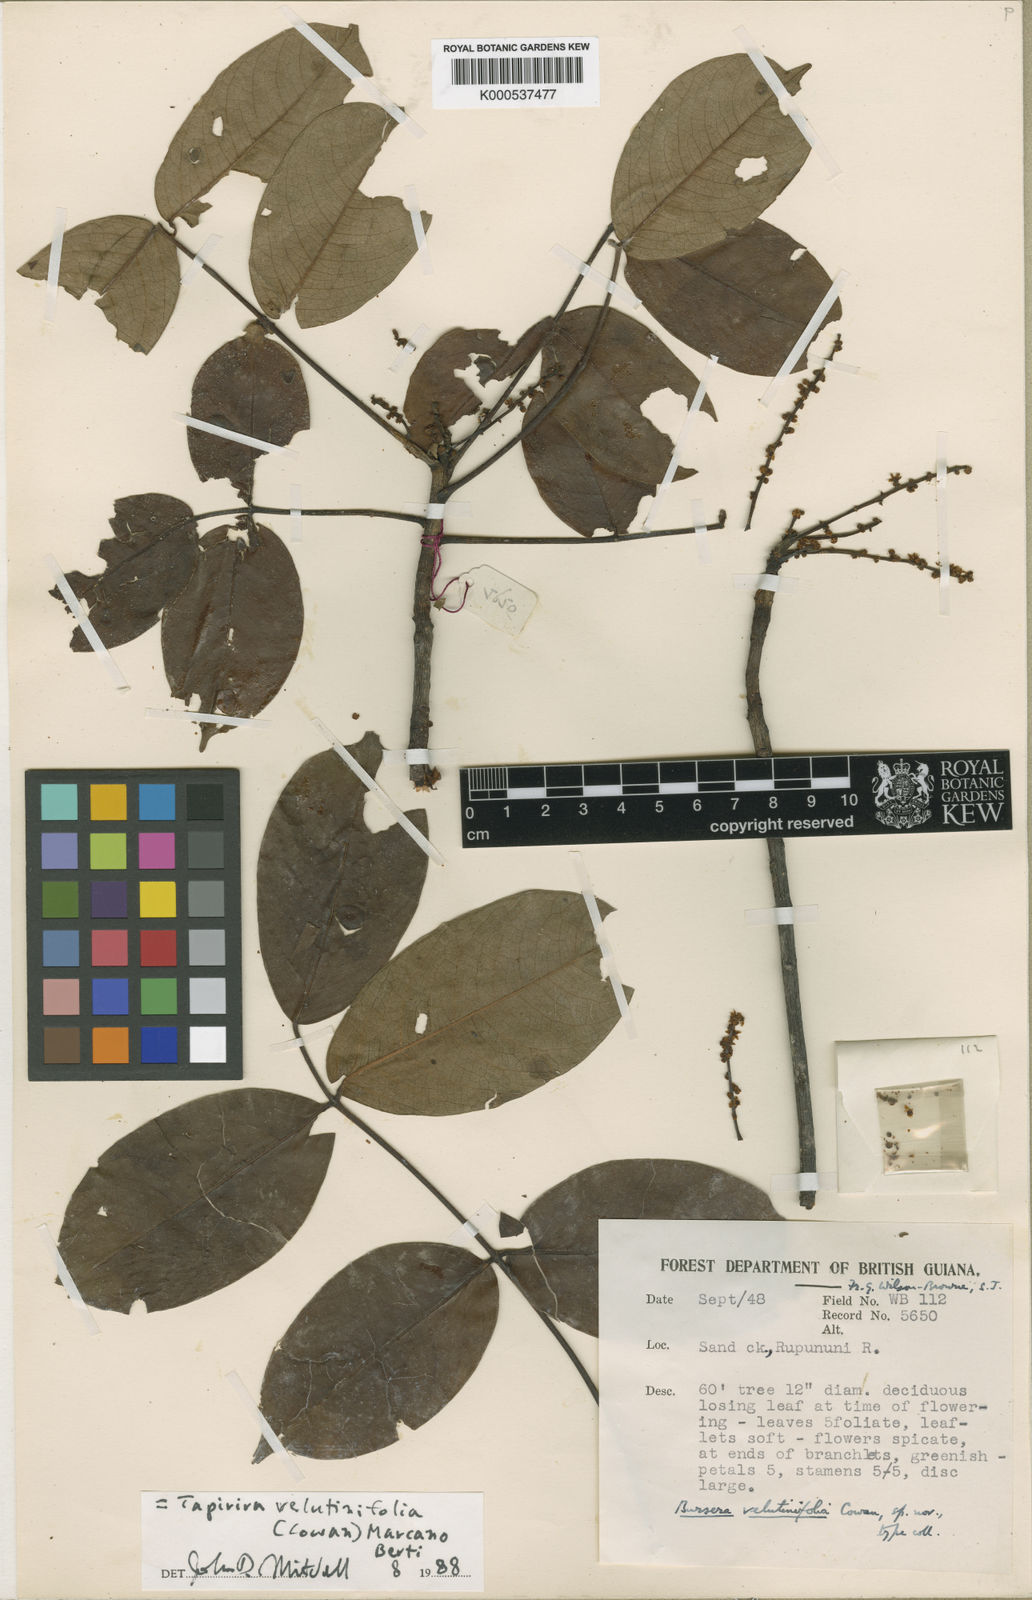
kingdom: Plantae
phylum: Tracheophyta
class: Magnoliopsida
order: Sapindales
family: Anacardiaceae
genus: Cyrtocarpa
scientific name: Cyrtocarpa velutinifolia
